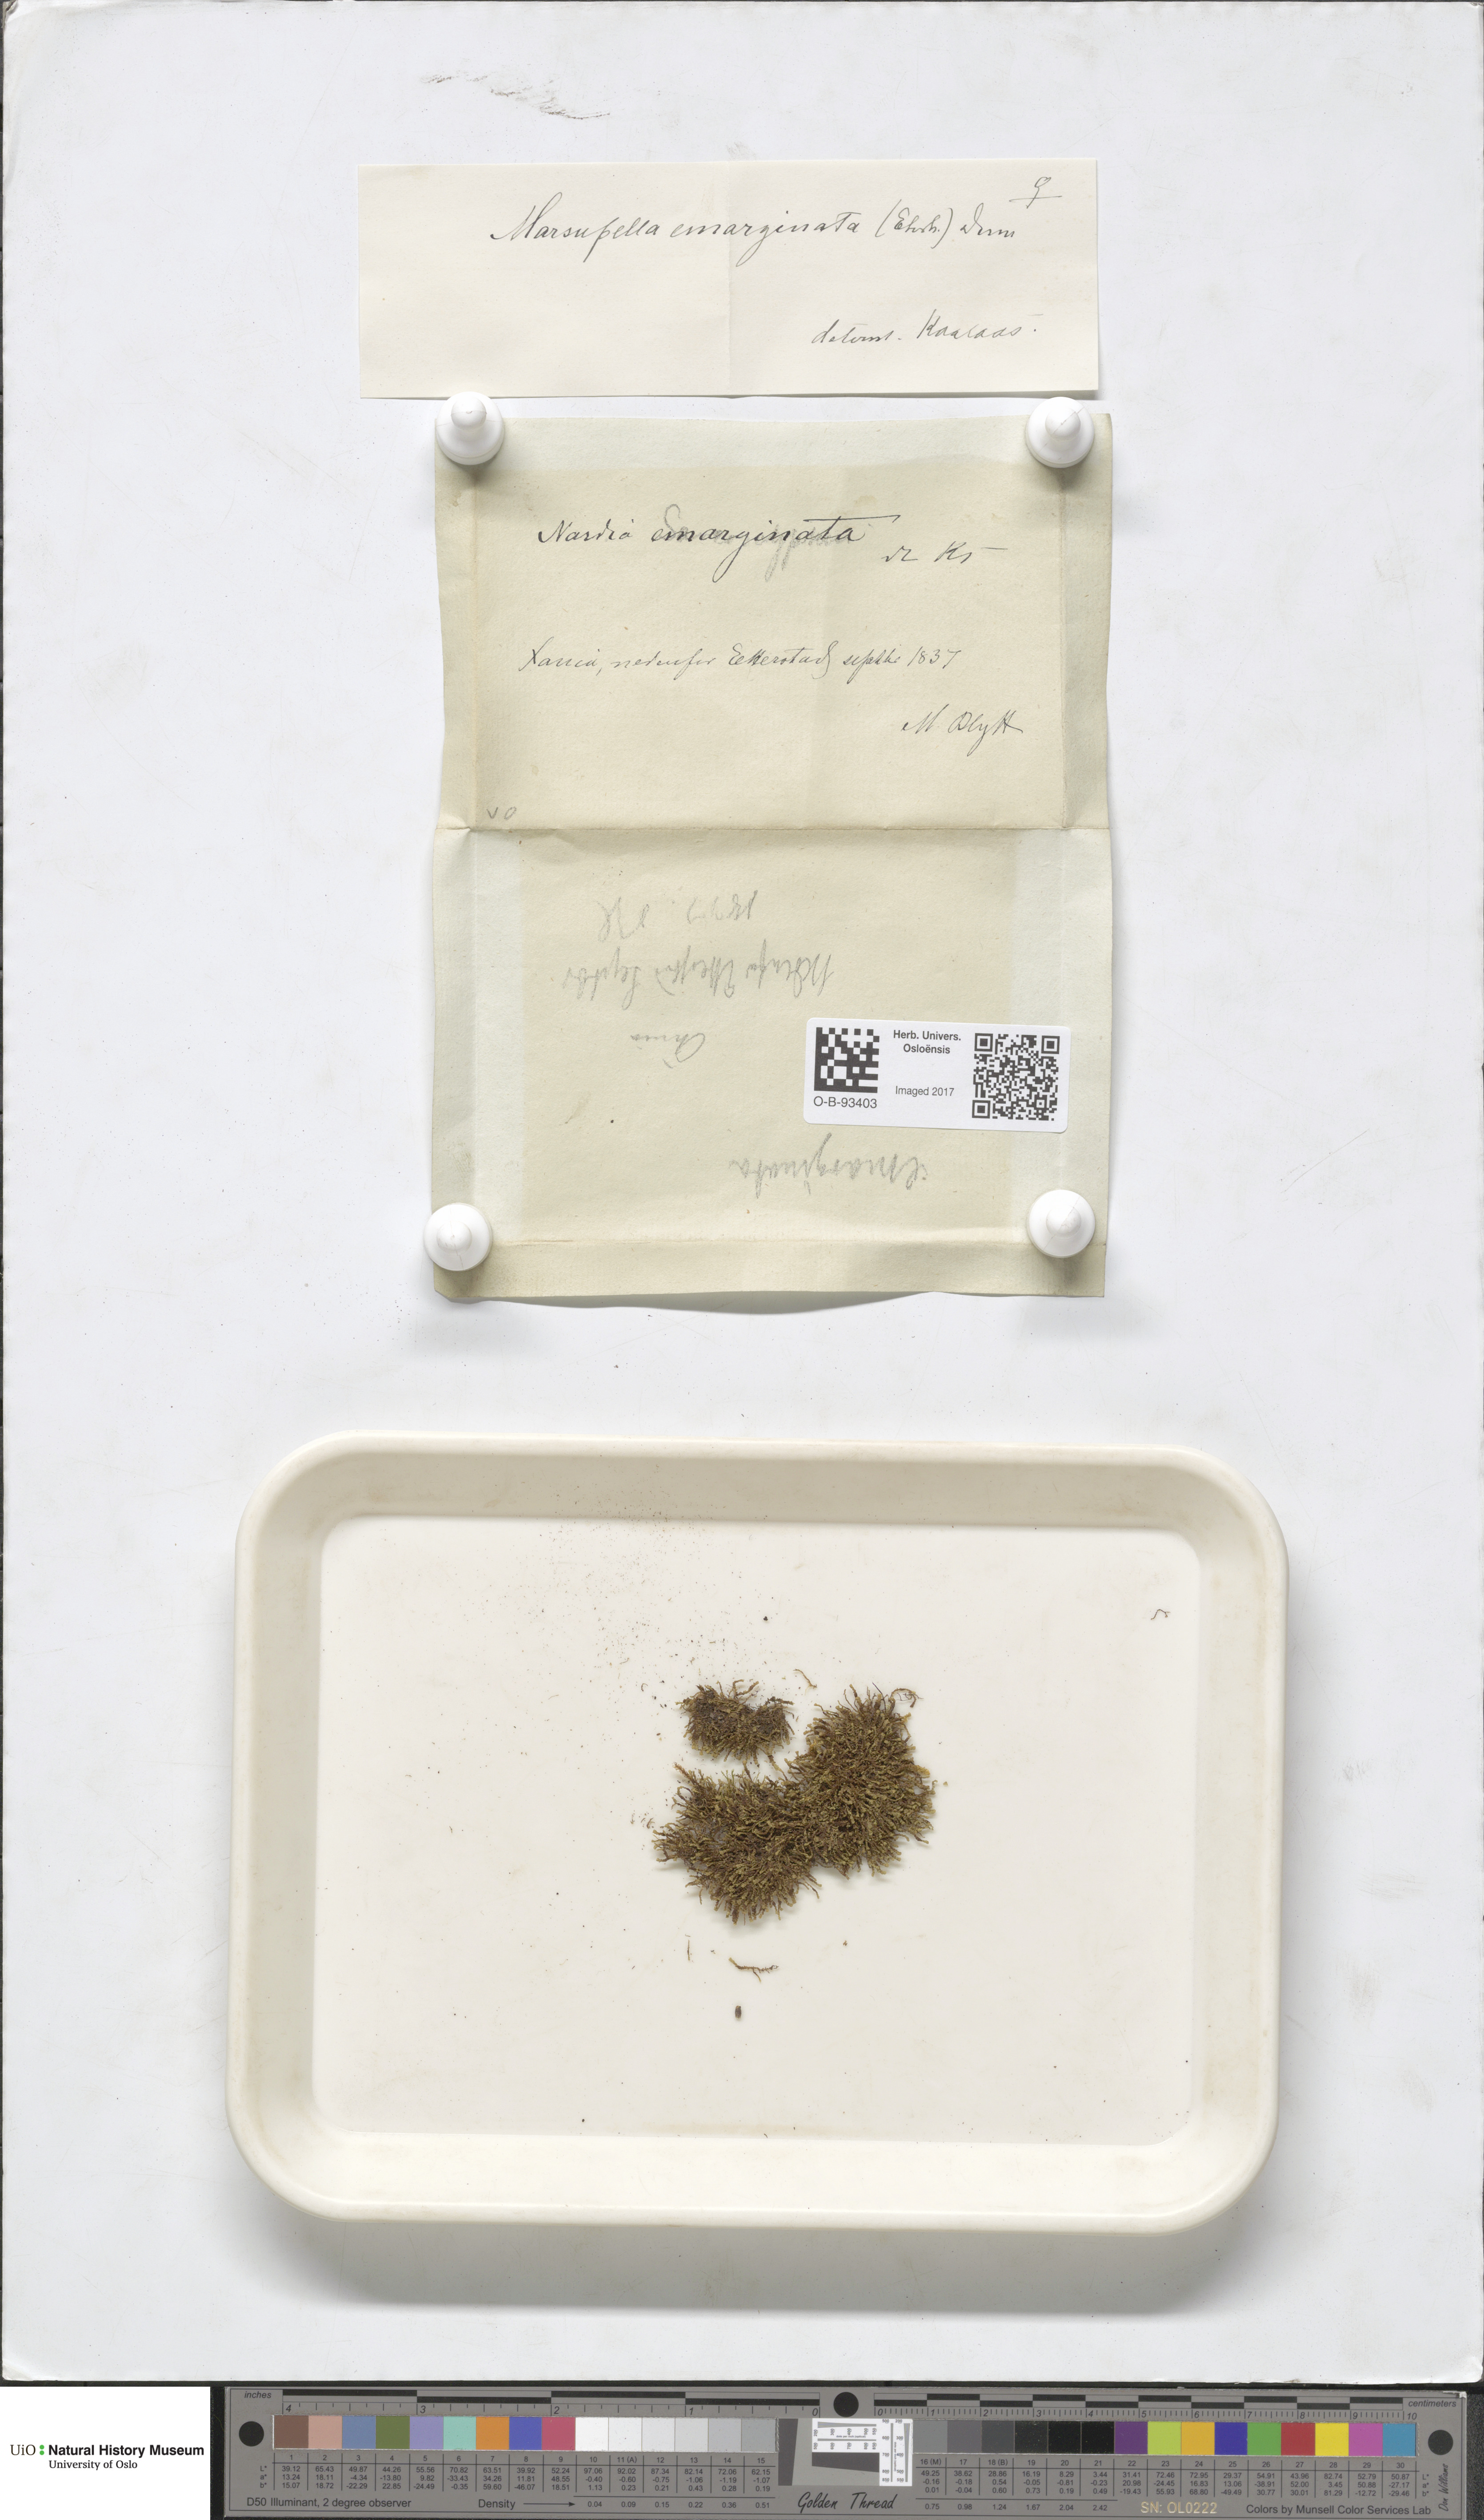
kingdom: Plantae
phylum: Marchantiophyta
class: Jungermanniopsida
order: Jungermanniales
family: Gymnomitriaceae
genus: Marsupella
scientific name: Marsupella emarginata
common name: Notched rustwort
